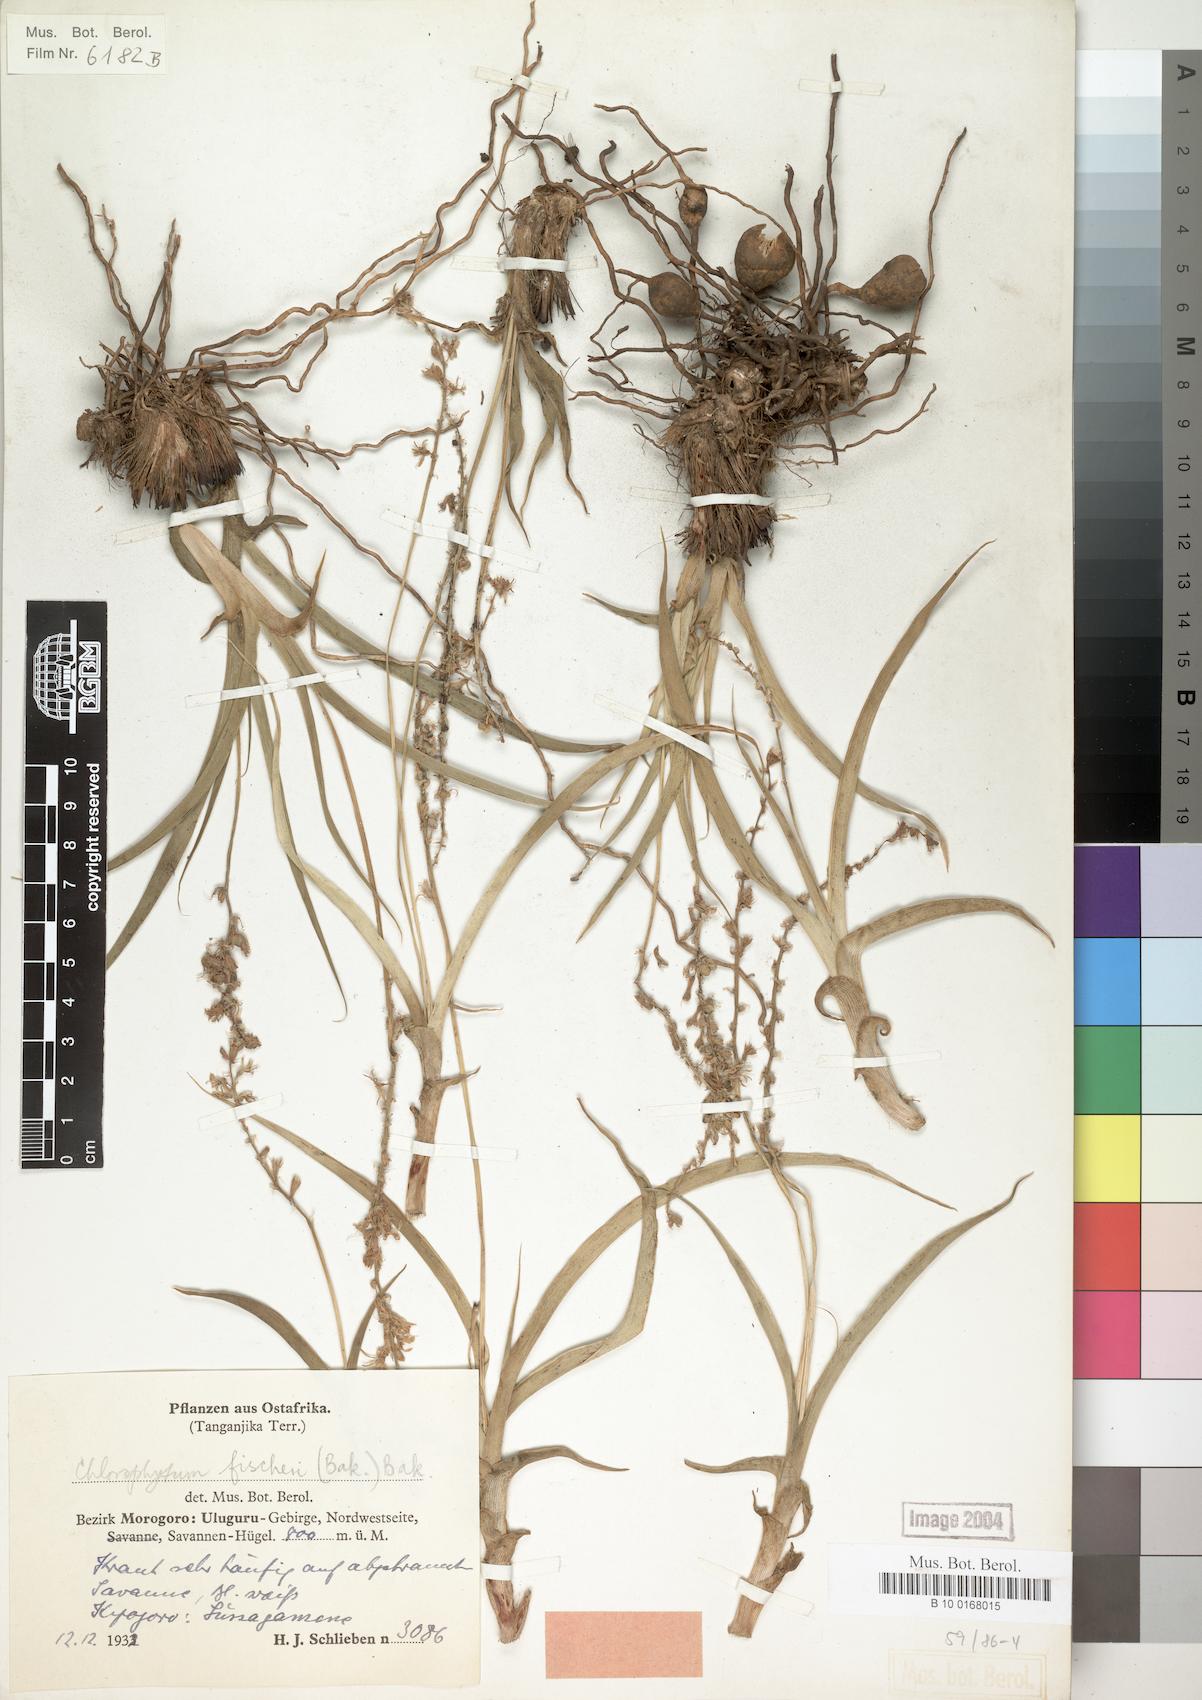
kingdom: Plantae
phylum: Tracheophyta
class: Liliopsida
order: Asparagales
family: Asparagaceae
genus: Chlorophytum
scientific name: Chlorophytum fischeri
